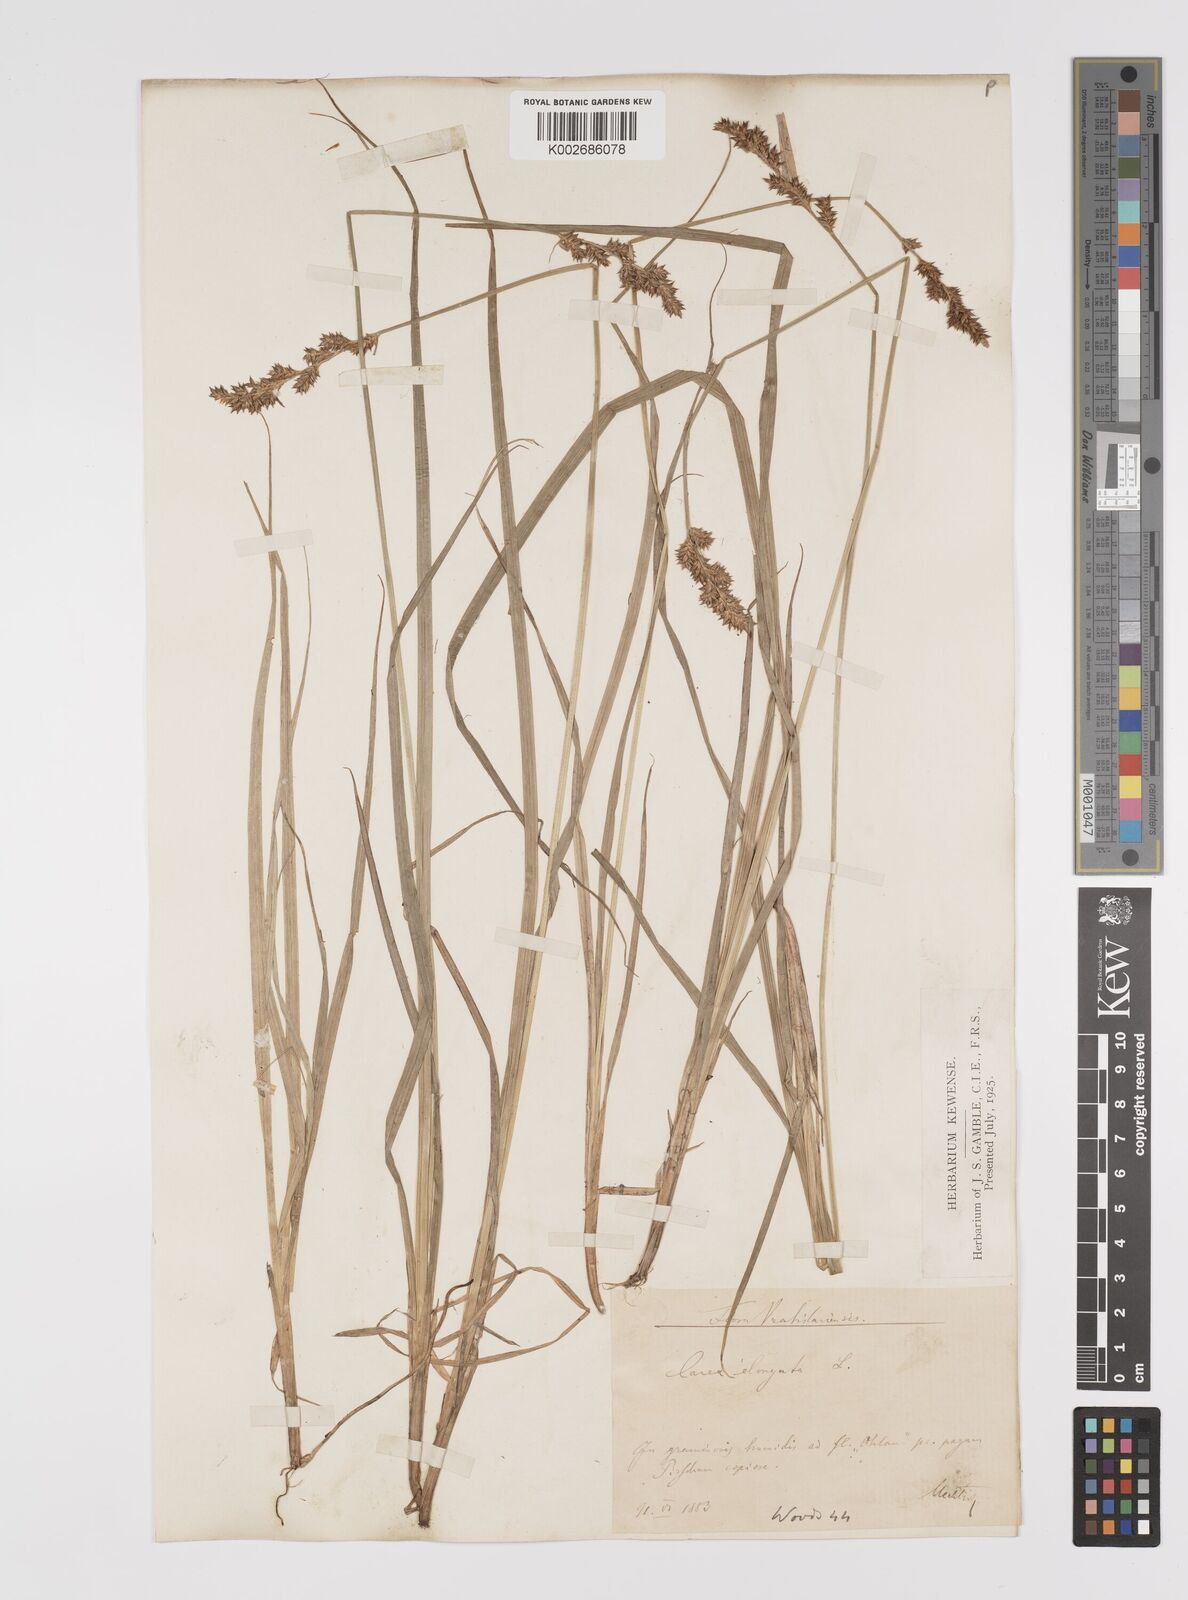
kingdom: Plantae
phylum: Tracheophyta
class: Liliopsida
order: Poales
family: Cyperaceae
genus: Carex
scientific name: Carex elongata
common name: Elongated sedge
